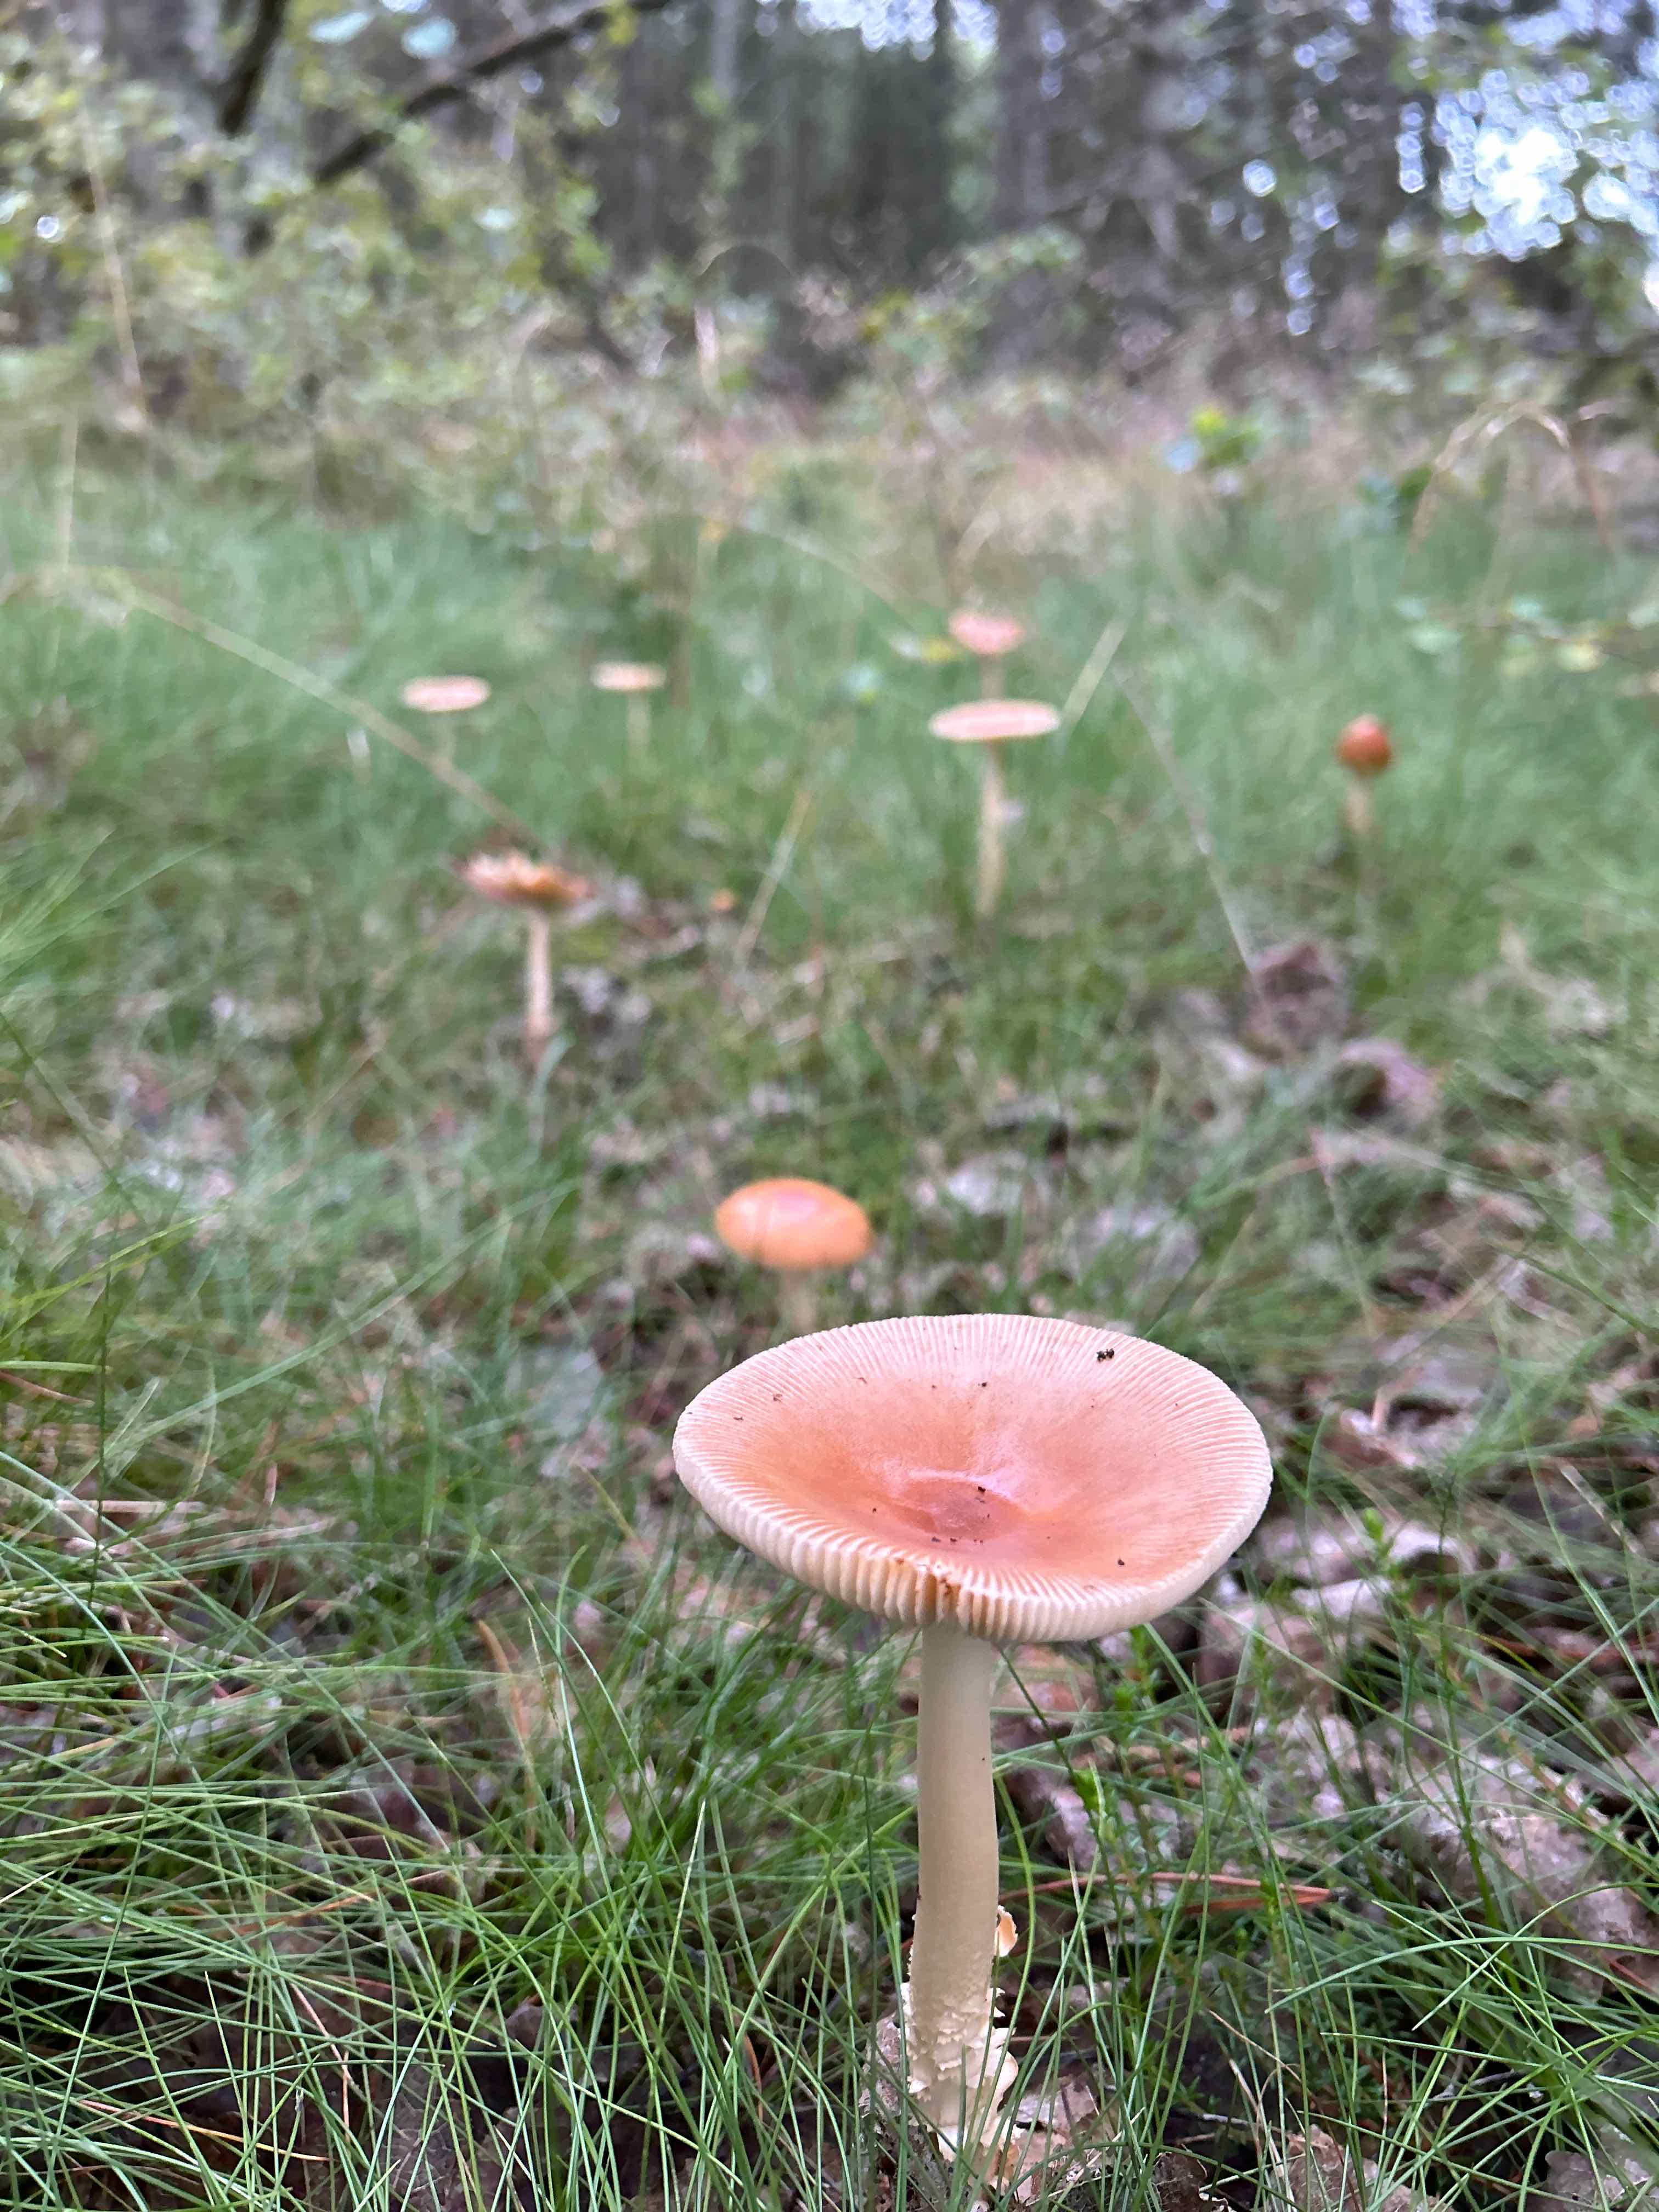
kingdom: Fungi
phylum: Basidiomycota
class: Agaricomycetes
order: Agaricales
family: Amanitaceae
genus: Amanita
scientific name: Amanita fulva
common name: brun kam-fluesvamp
